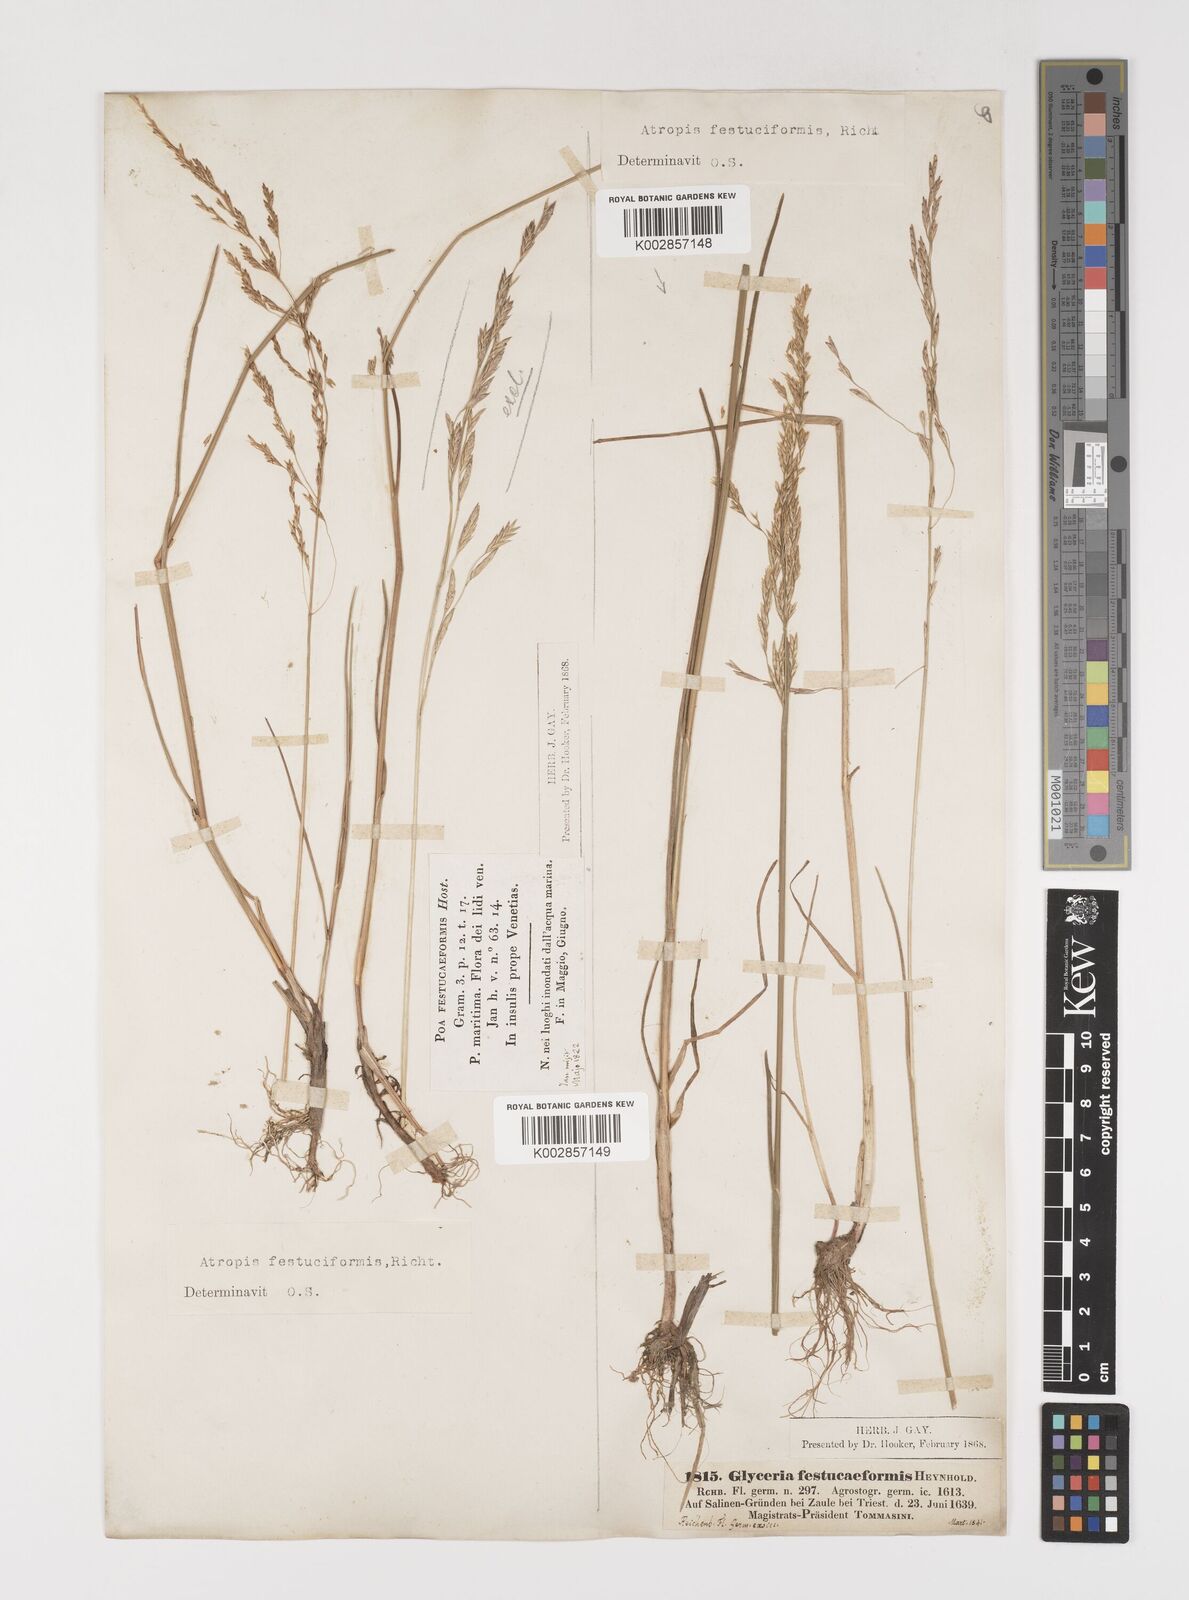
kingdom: Plantae
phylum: Tracheophyta
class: Liliopsida
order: Poales
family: Poaceae
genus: Puccinellia
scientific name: Puccinellia festuciformis
